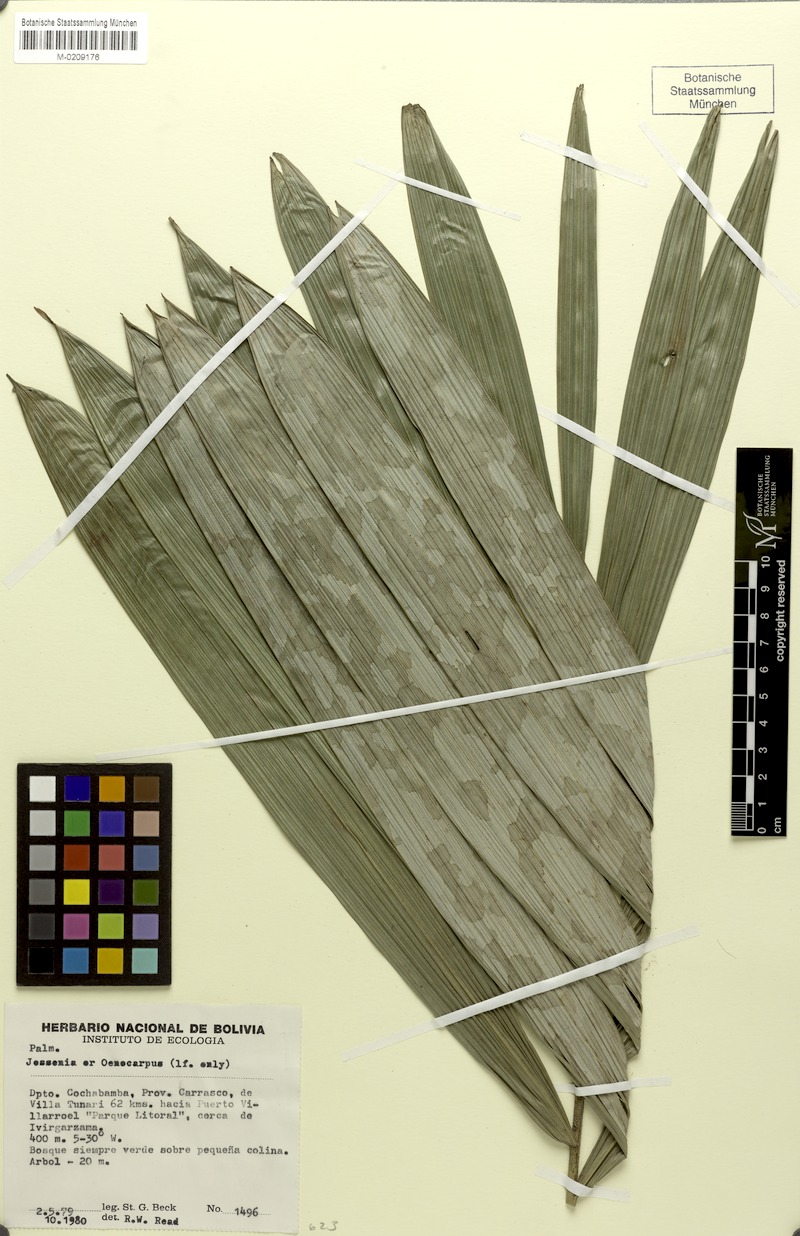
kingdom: Plantae
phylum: Tracheophyta
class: Liliopsida
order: Arecales
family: Arecaceae
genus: Oenocarpus
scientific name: Oenocarpus
